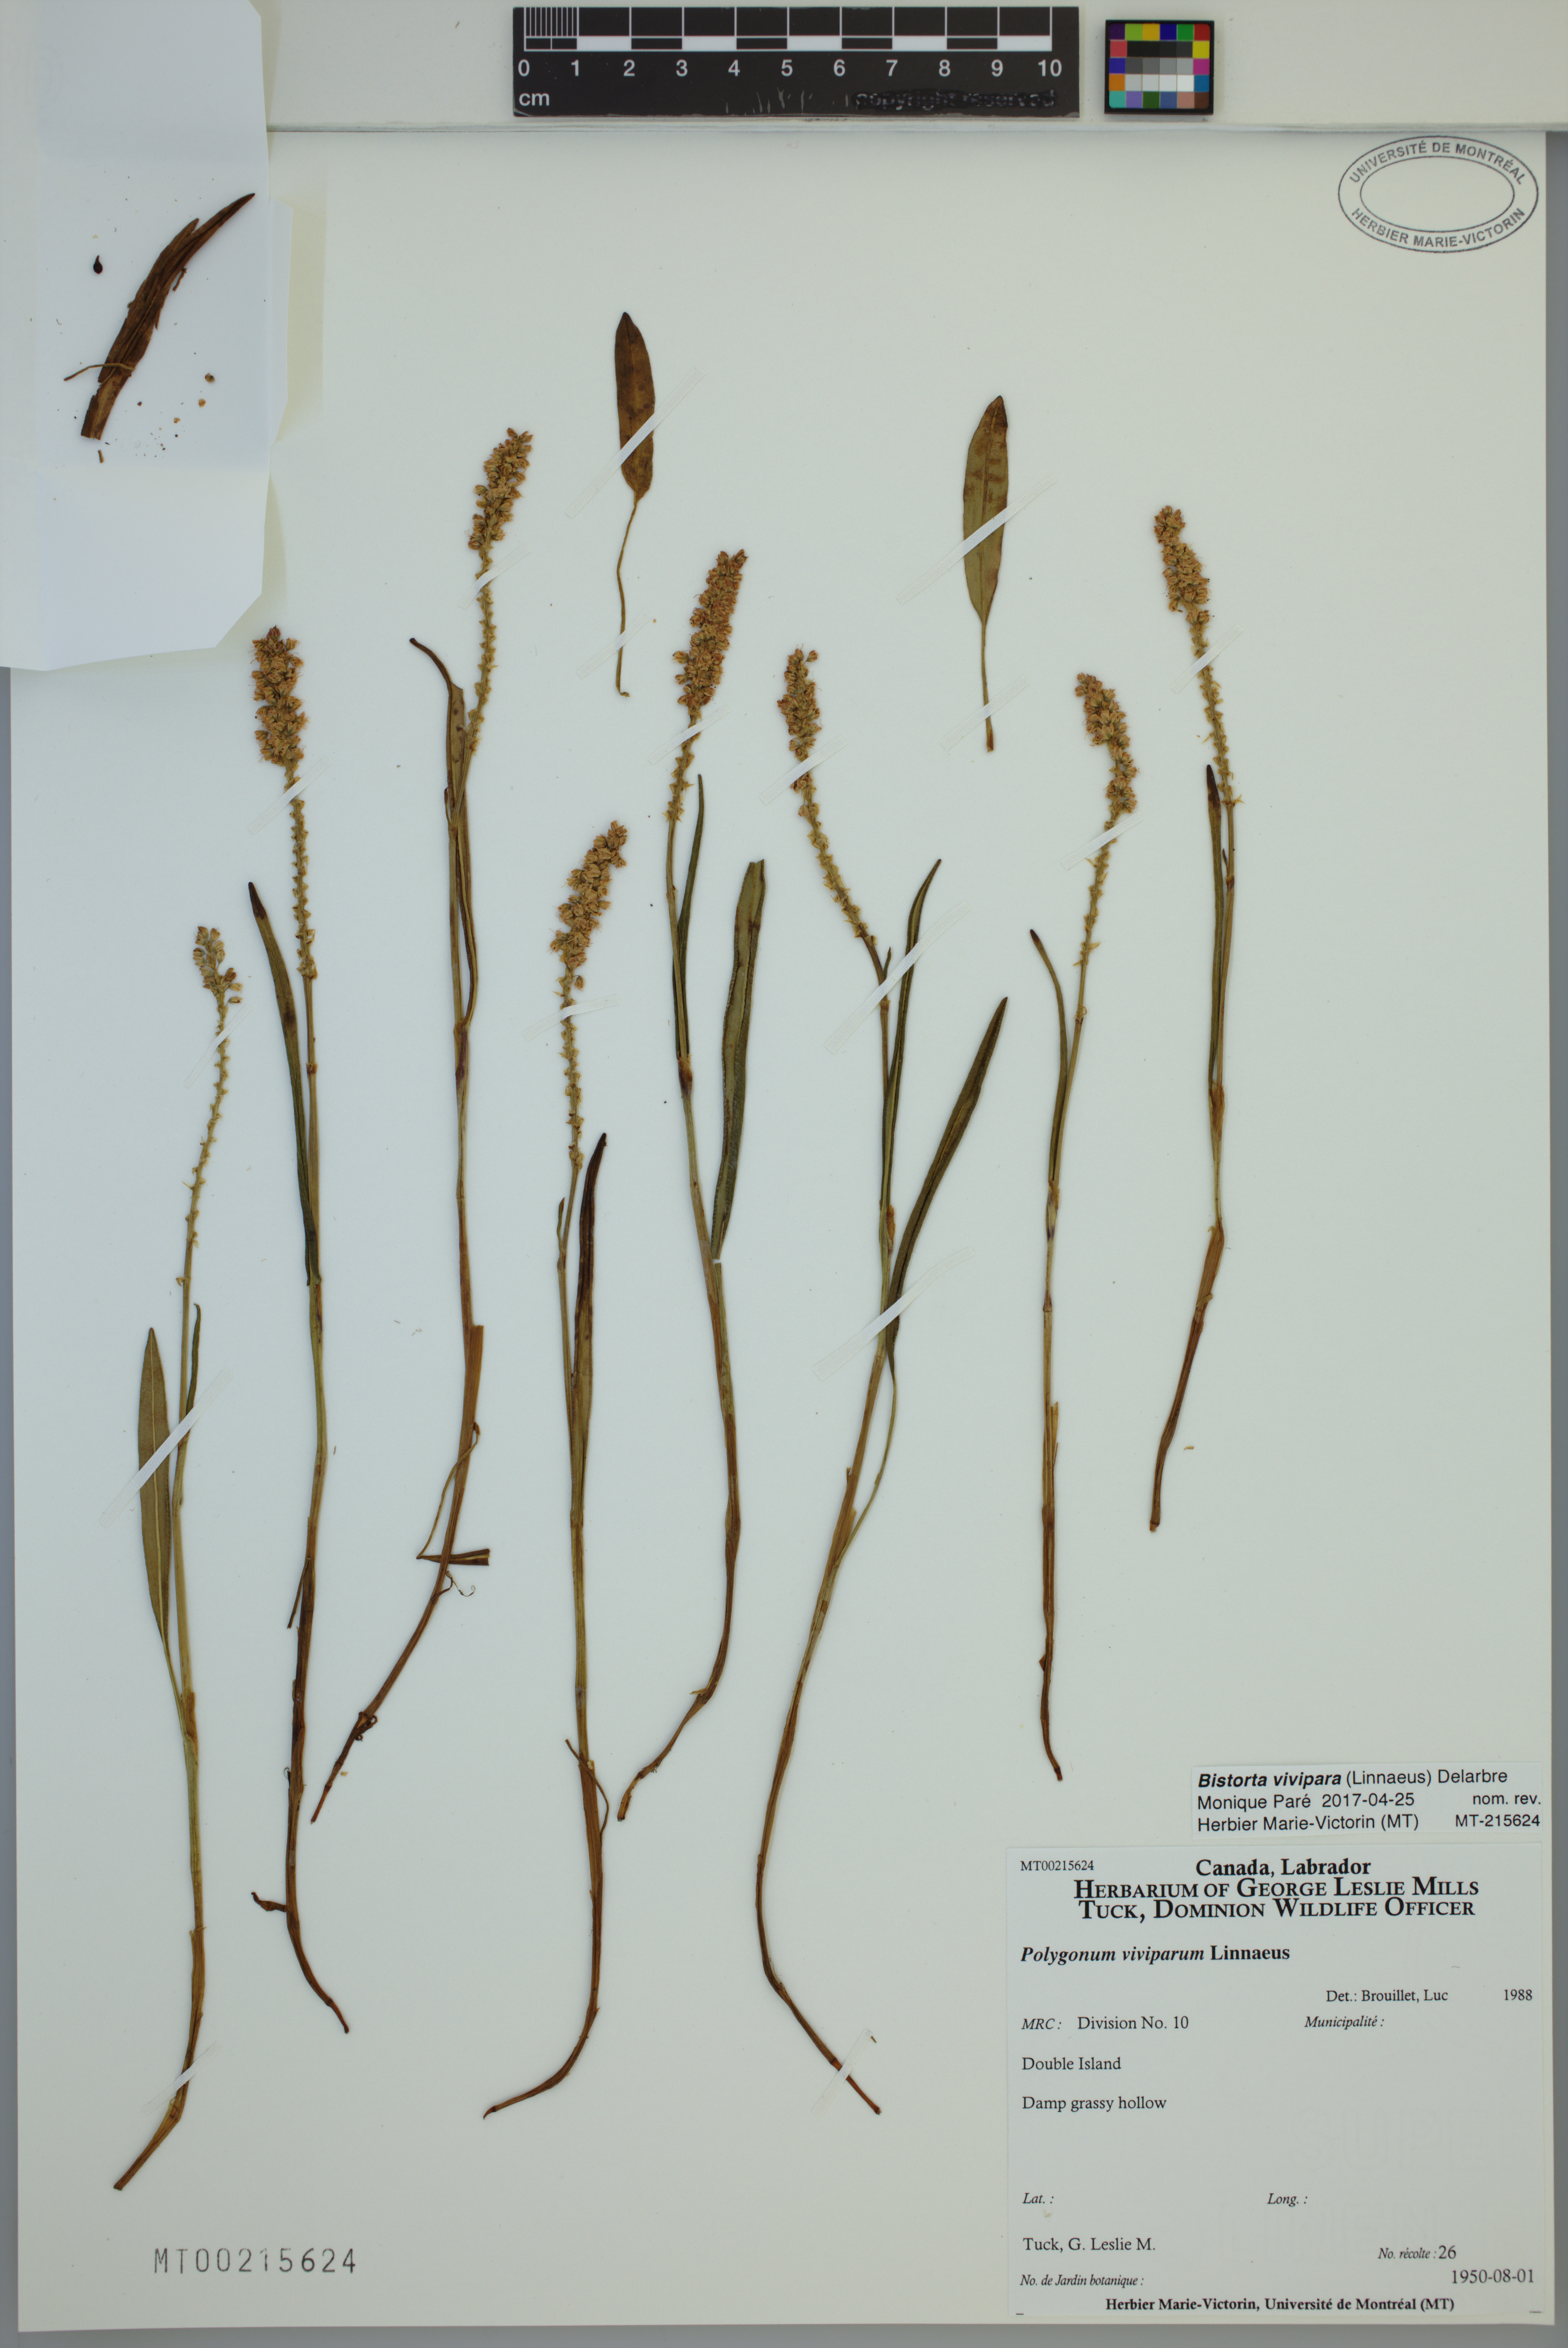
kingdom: Plantae
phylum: Tracheophyta
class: Magnoliopsida
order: Caryophyllales
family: Polygonaceae
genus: Bistorta
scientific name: Bistorta vivipara
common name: Alpine bistort
